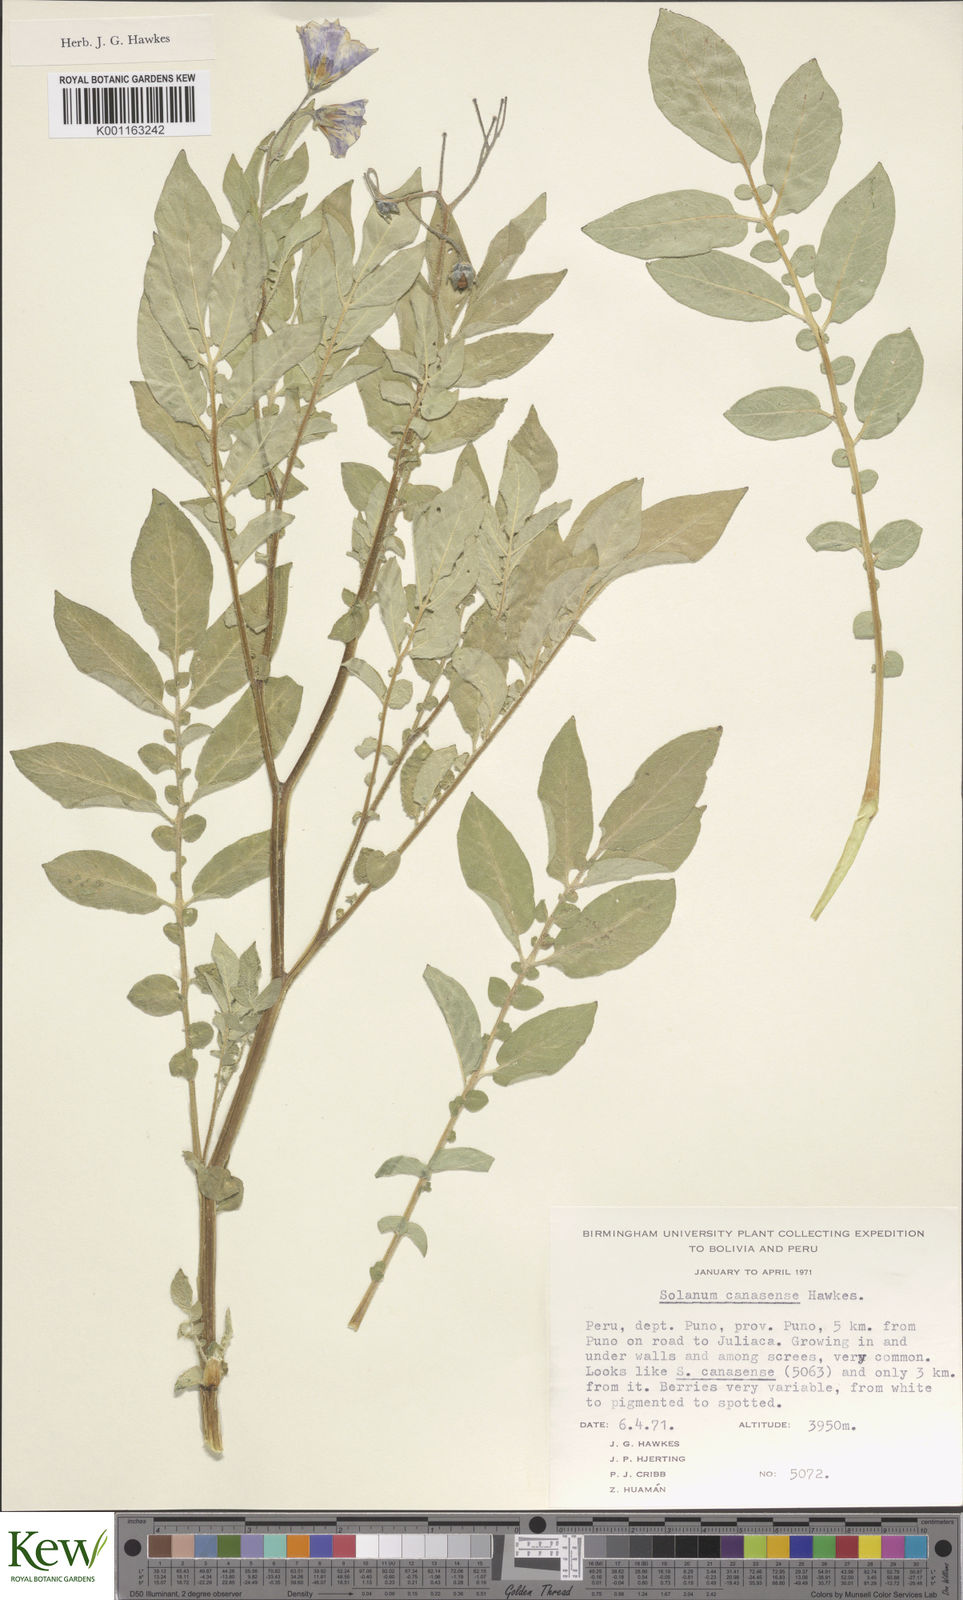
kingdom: Plantae
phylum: Tracheophyta
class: Magnoliopsida
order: Solanales
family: Solanaceae
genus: Solanum
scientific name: Solanum candolleanum
